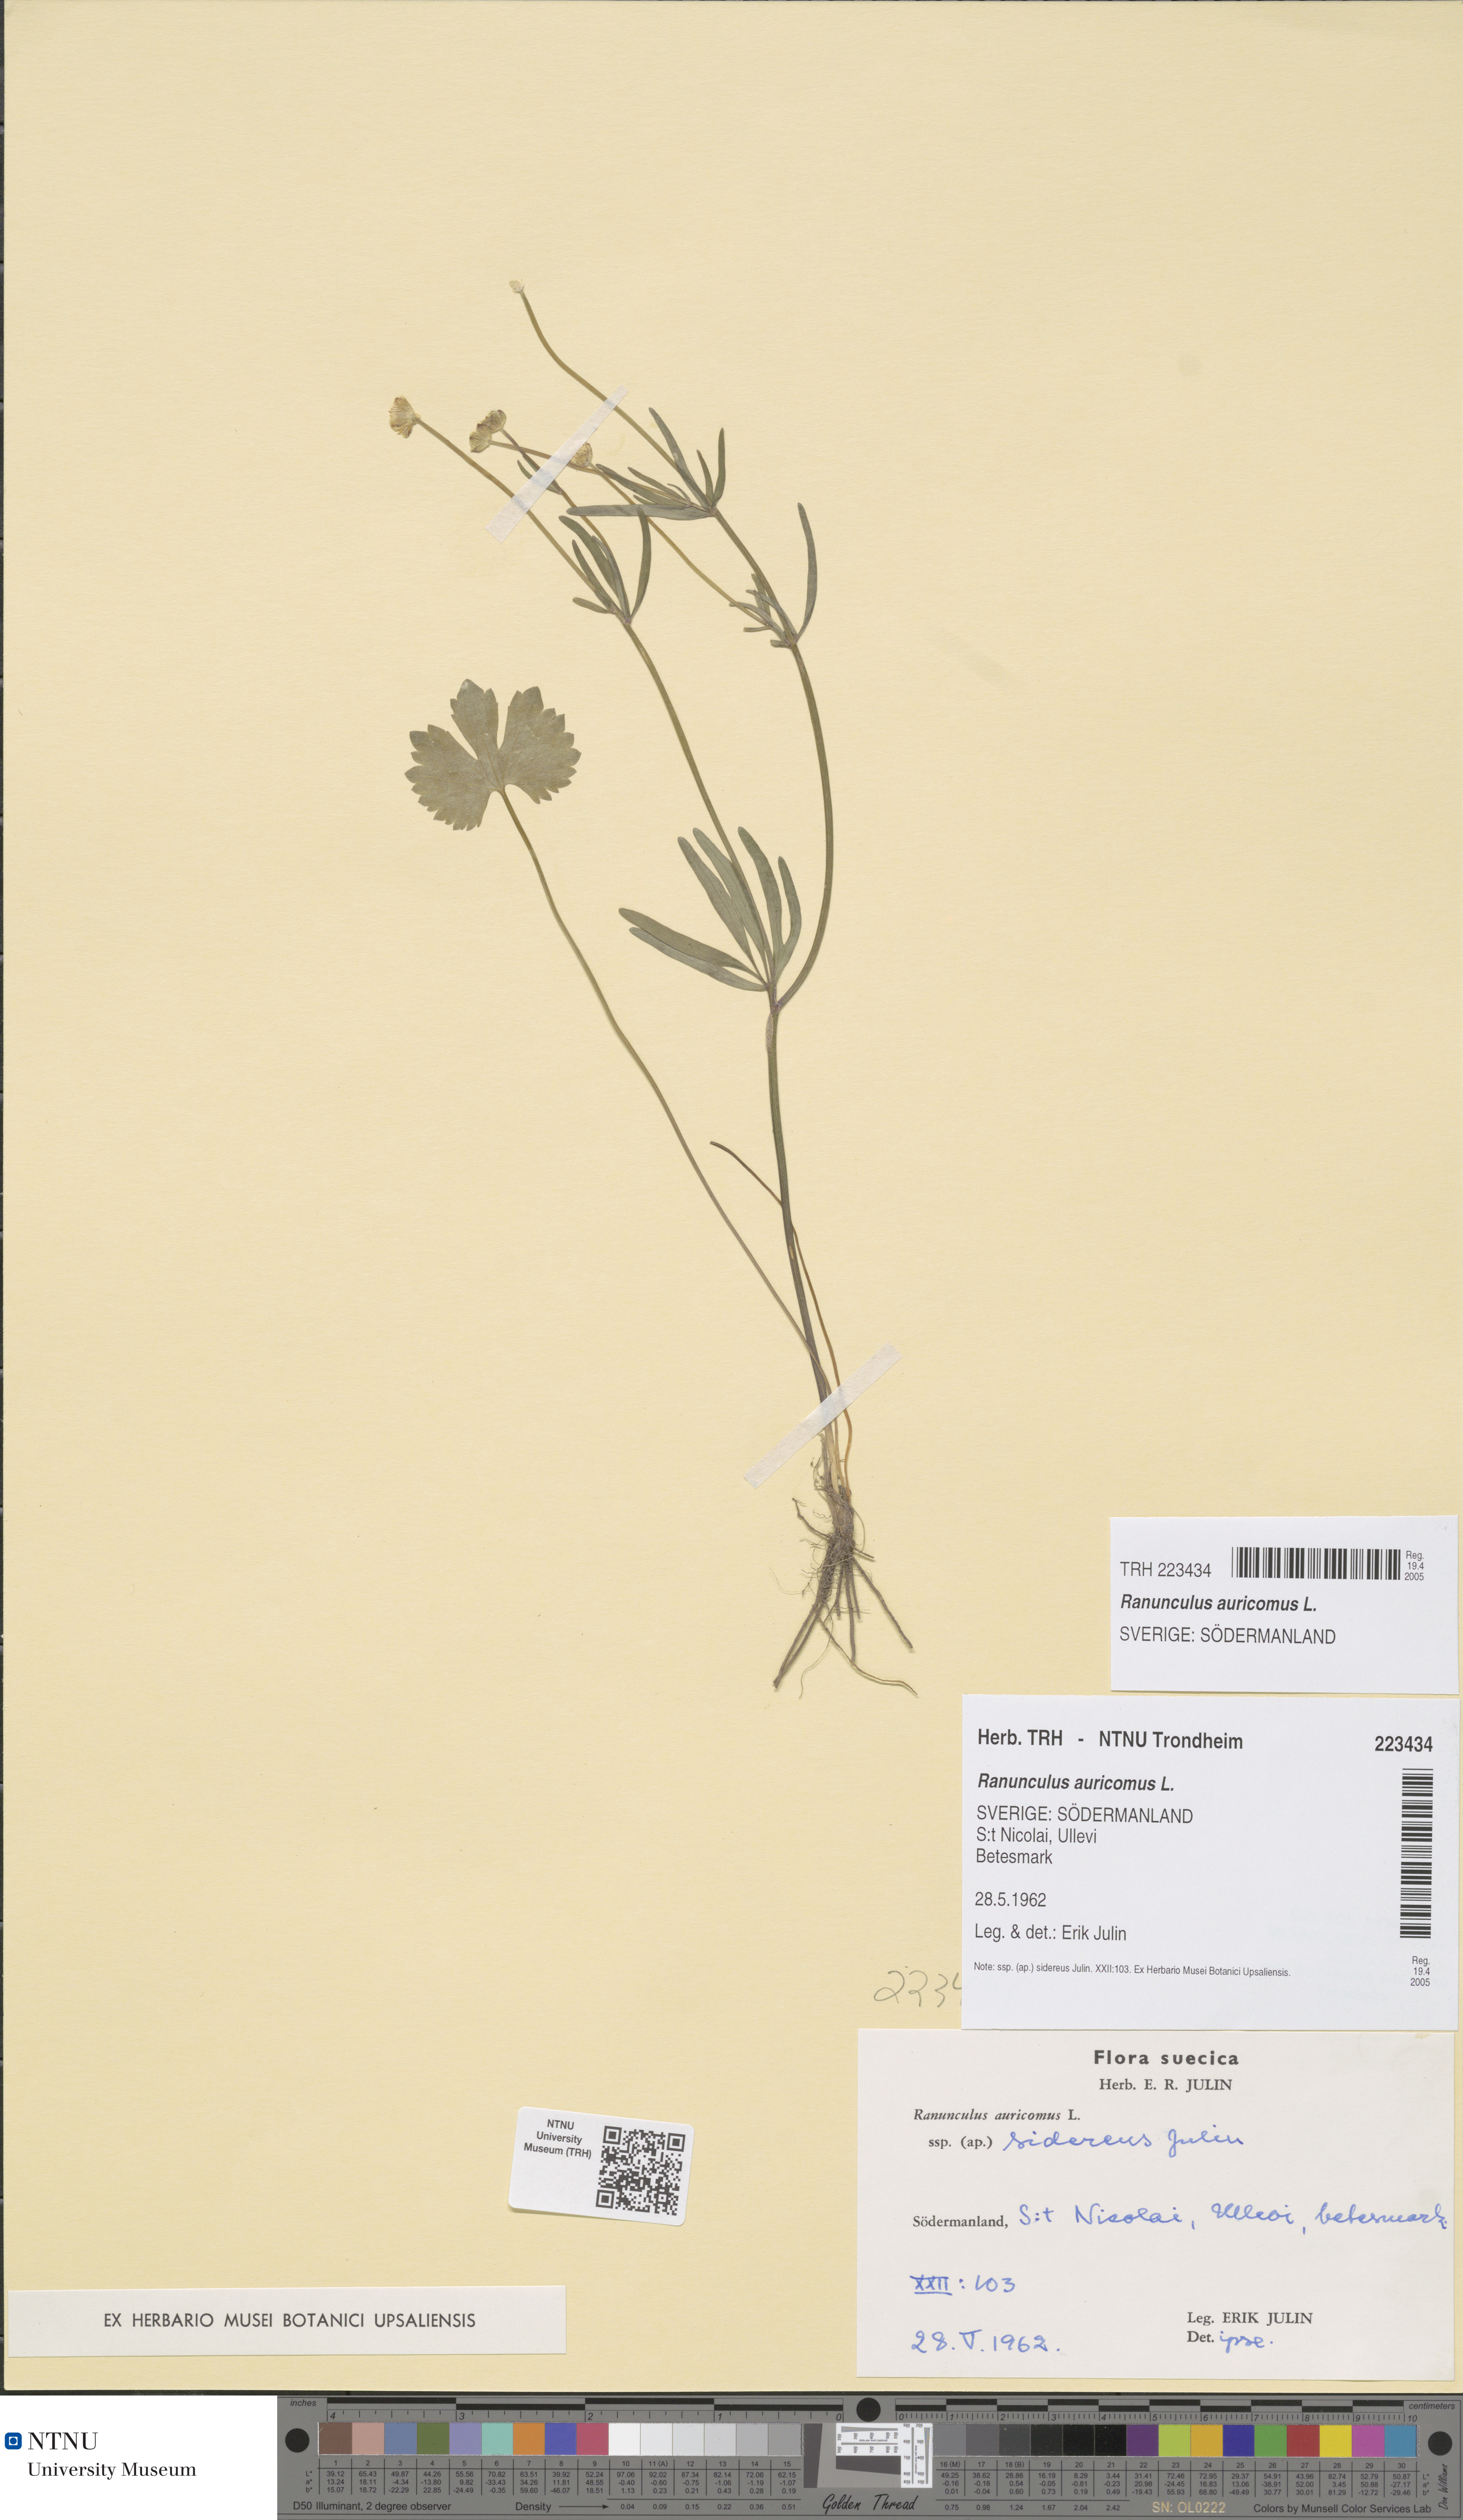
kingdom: Plantae
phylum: Tracheophyta
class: Magnoliopsida
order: Ranunculales
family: Ranunculaceae
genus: Ranunculus
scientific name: Ranunculus auricomus
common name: Goldilocks buttercup
